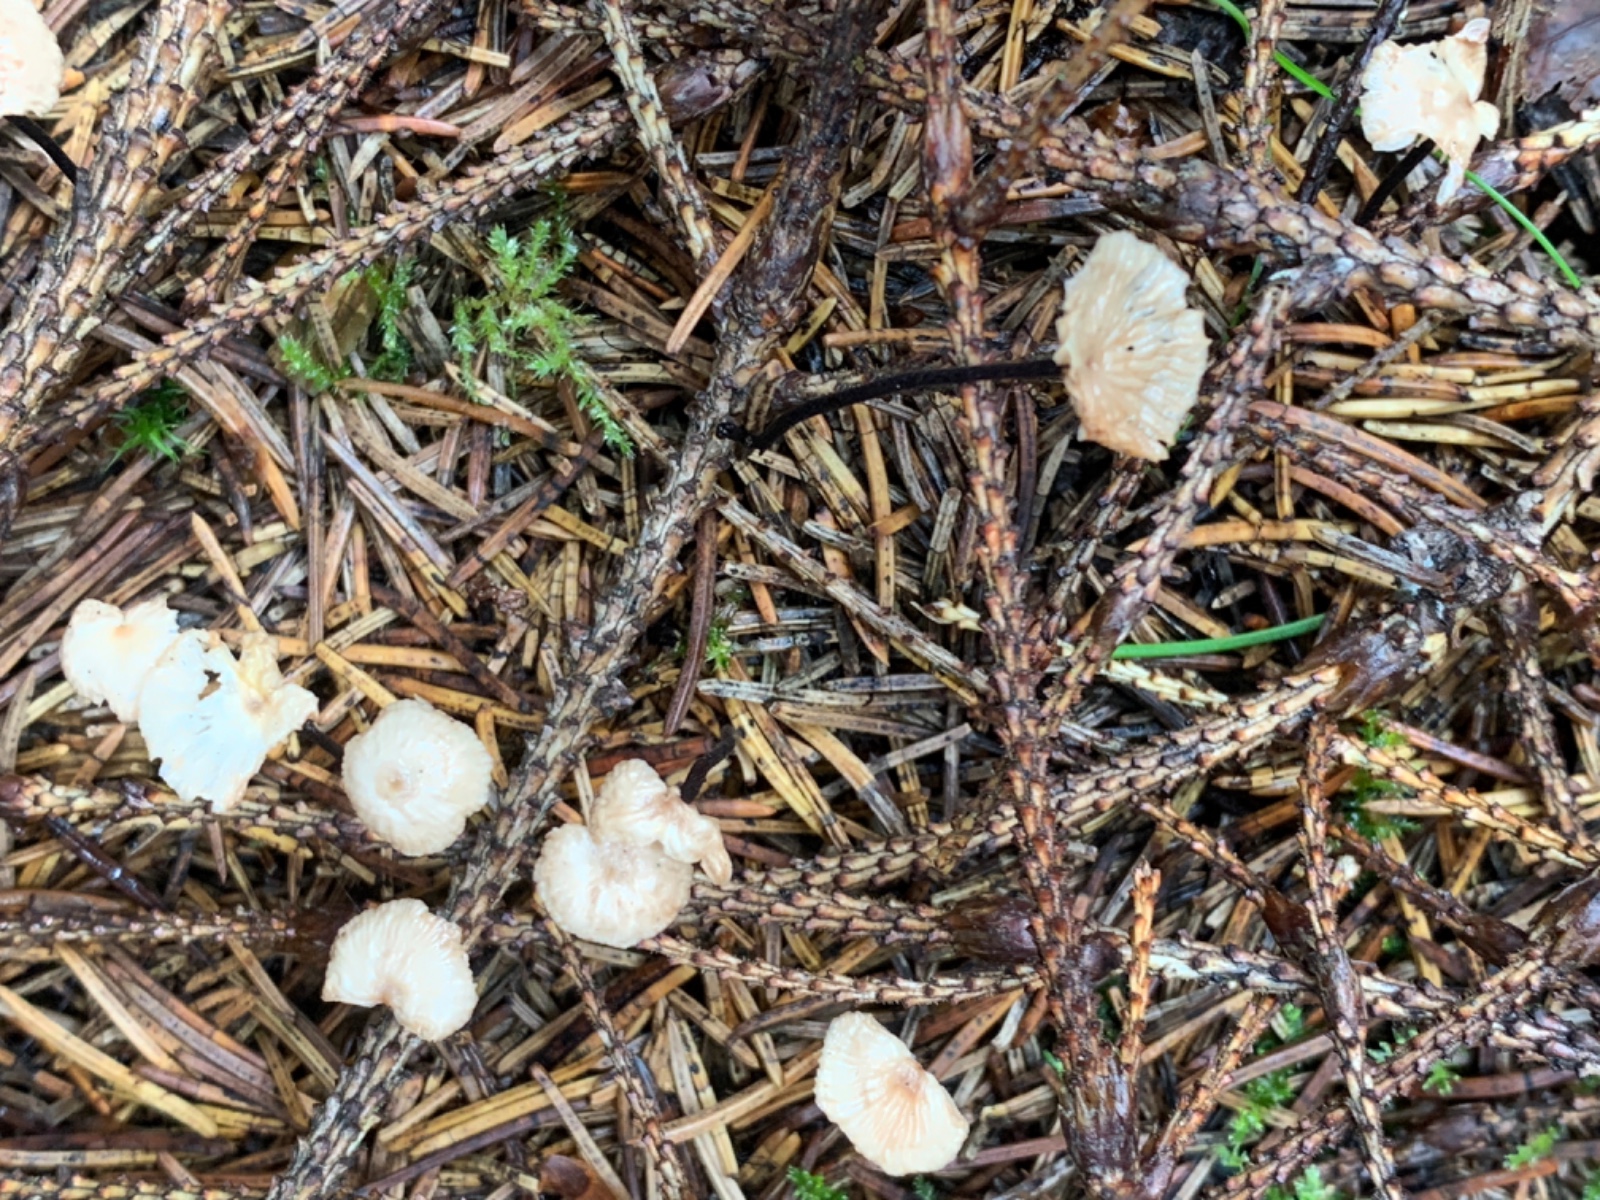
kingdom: Fungi
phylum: Basidiomycota
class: Agaricomycetes
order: Agaricales
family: Omphalotaceae
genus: Paragymnopus
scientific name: Paragymnopus perforans
